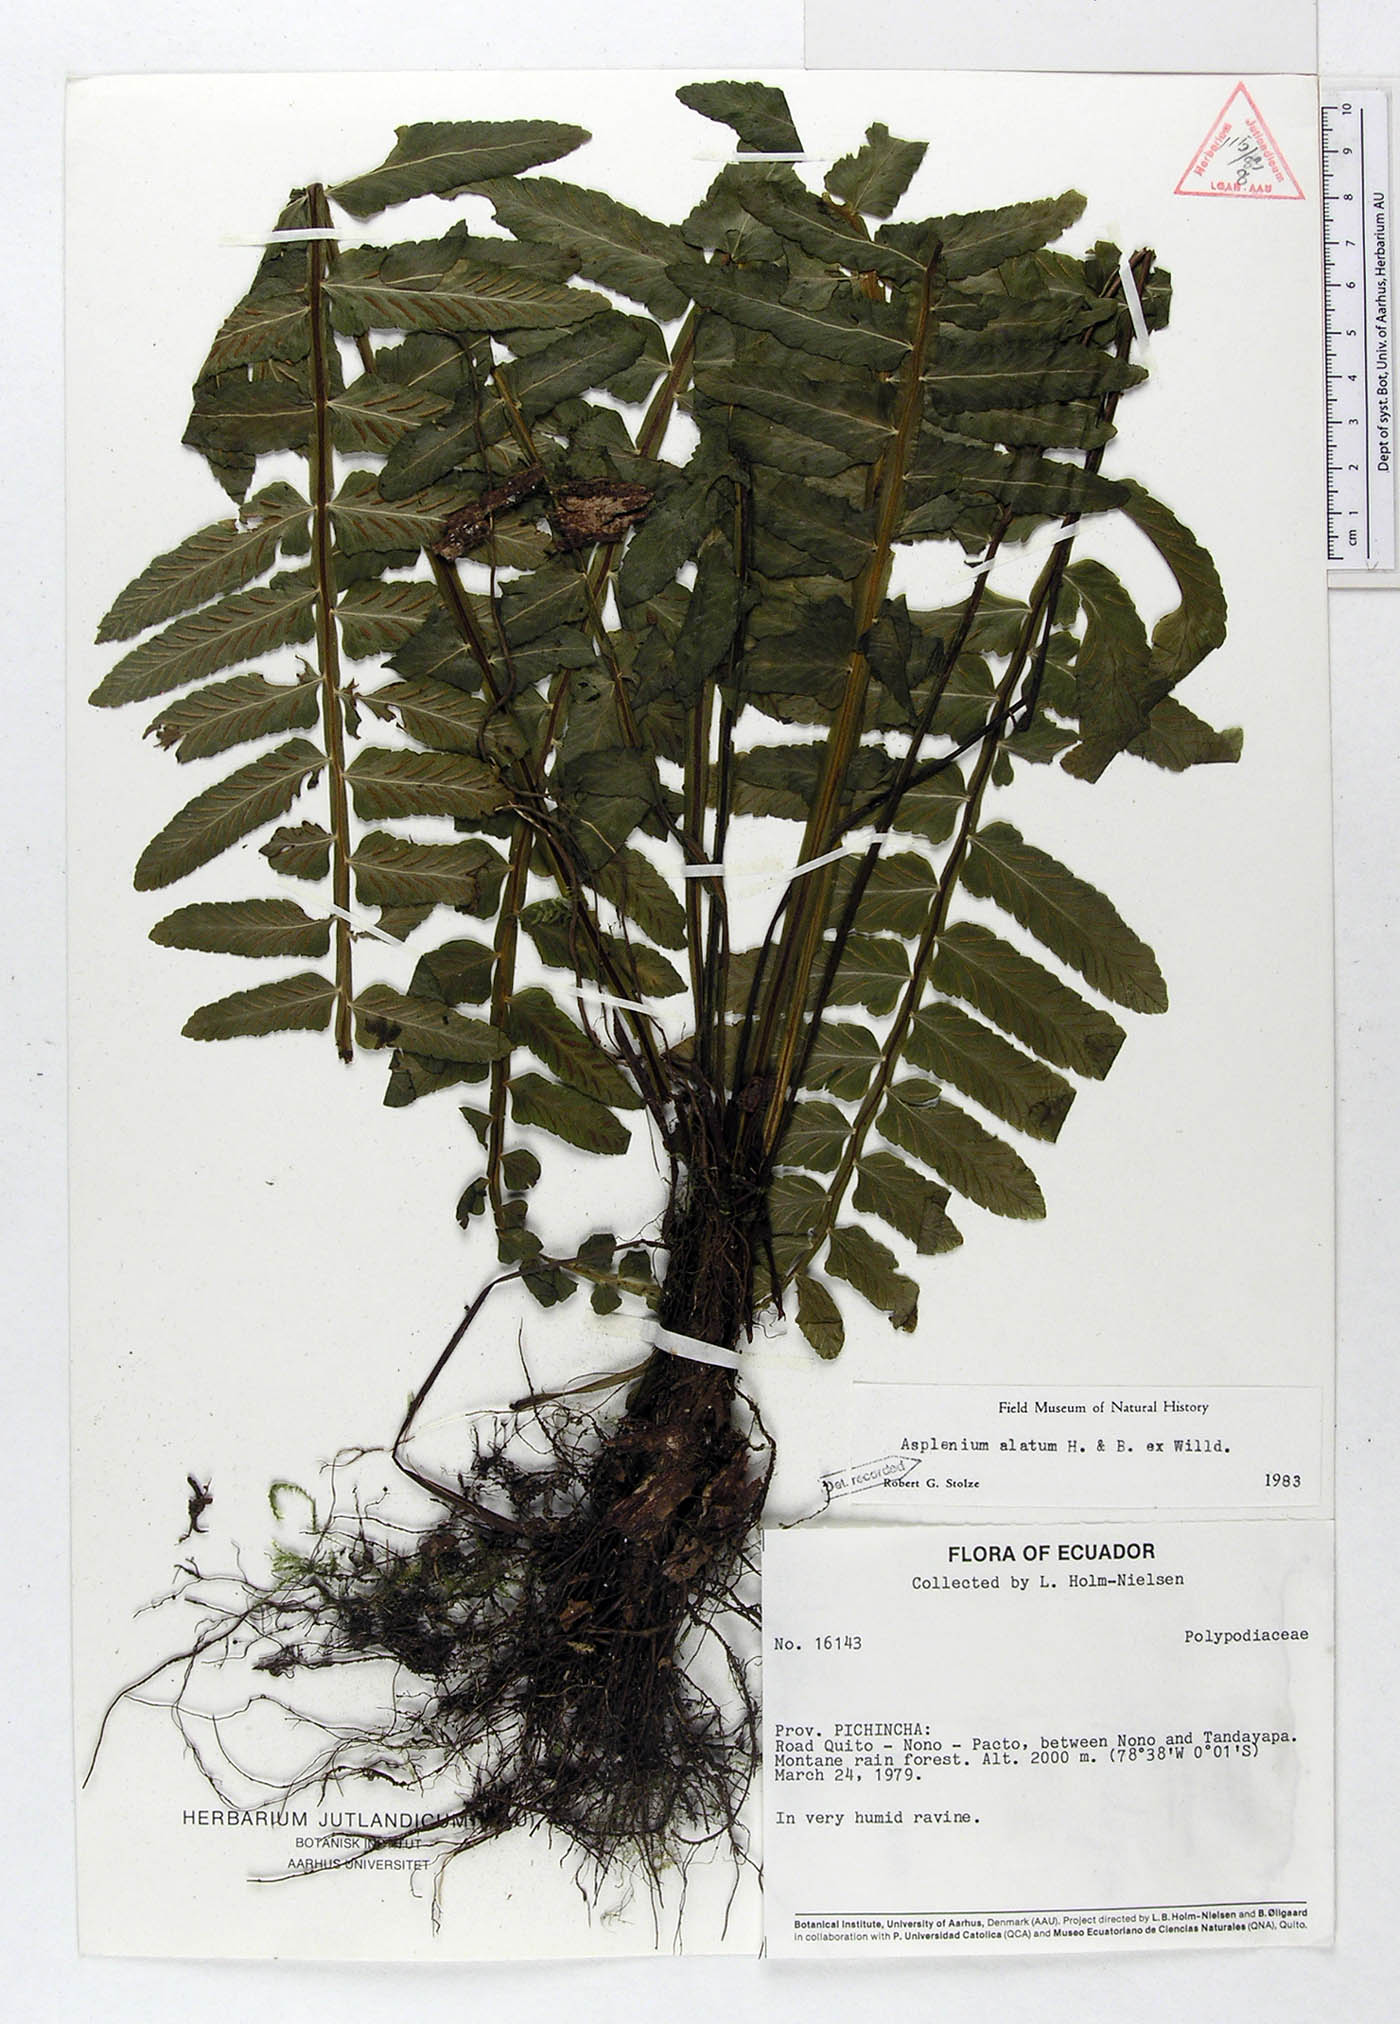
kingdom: Plantae
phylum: Tracheophyta
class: Polypodiopsida
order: Polypodiales
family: Aspleniaceae
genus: Asplenium
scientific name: Asplenium alatum
